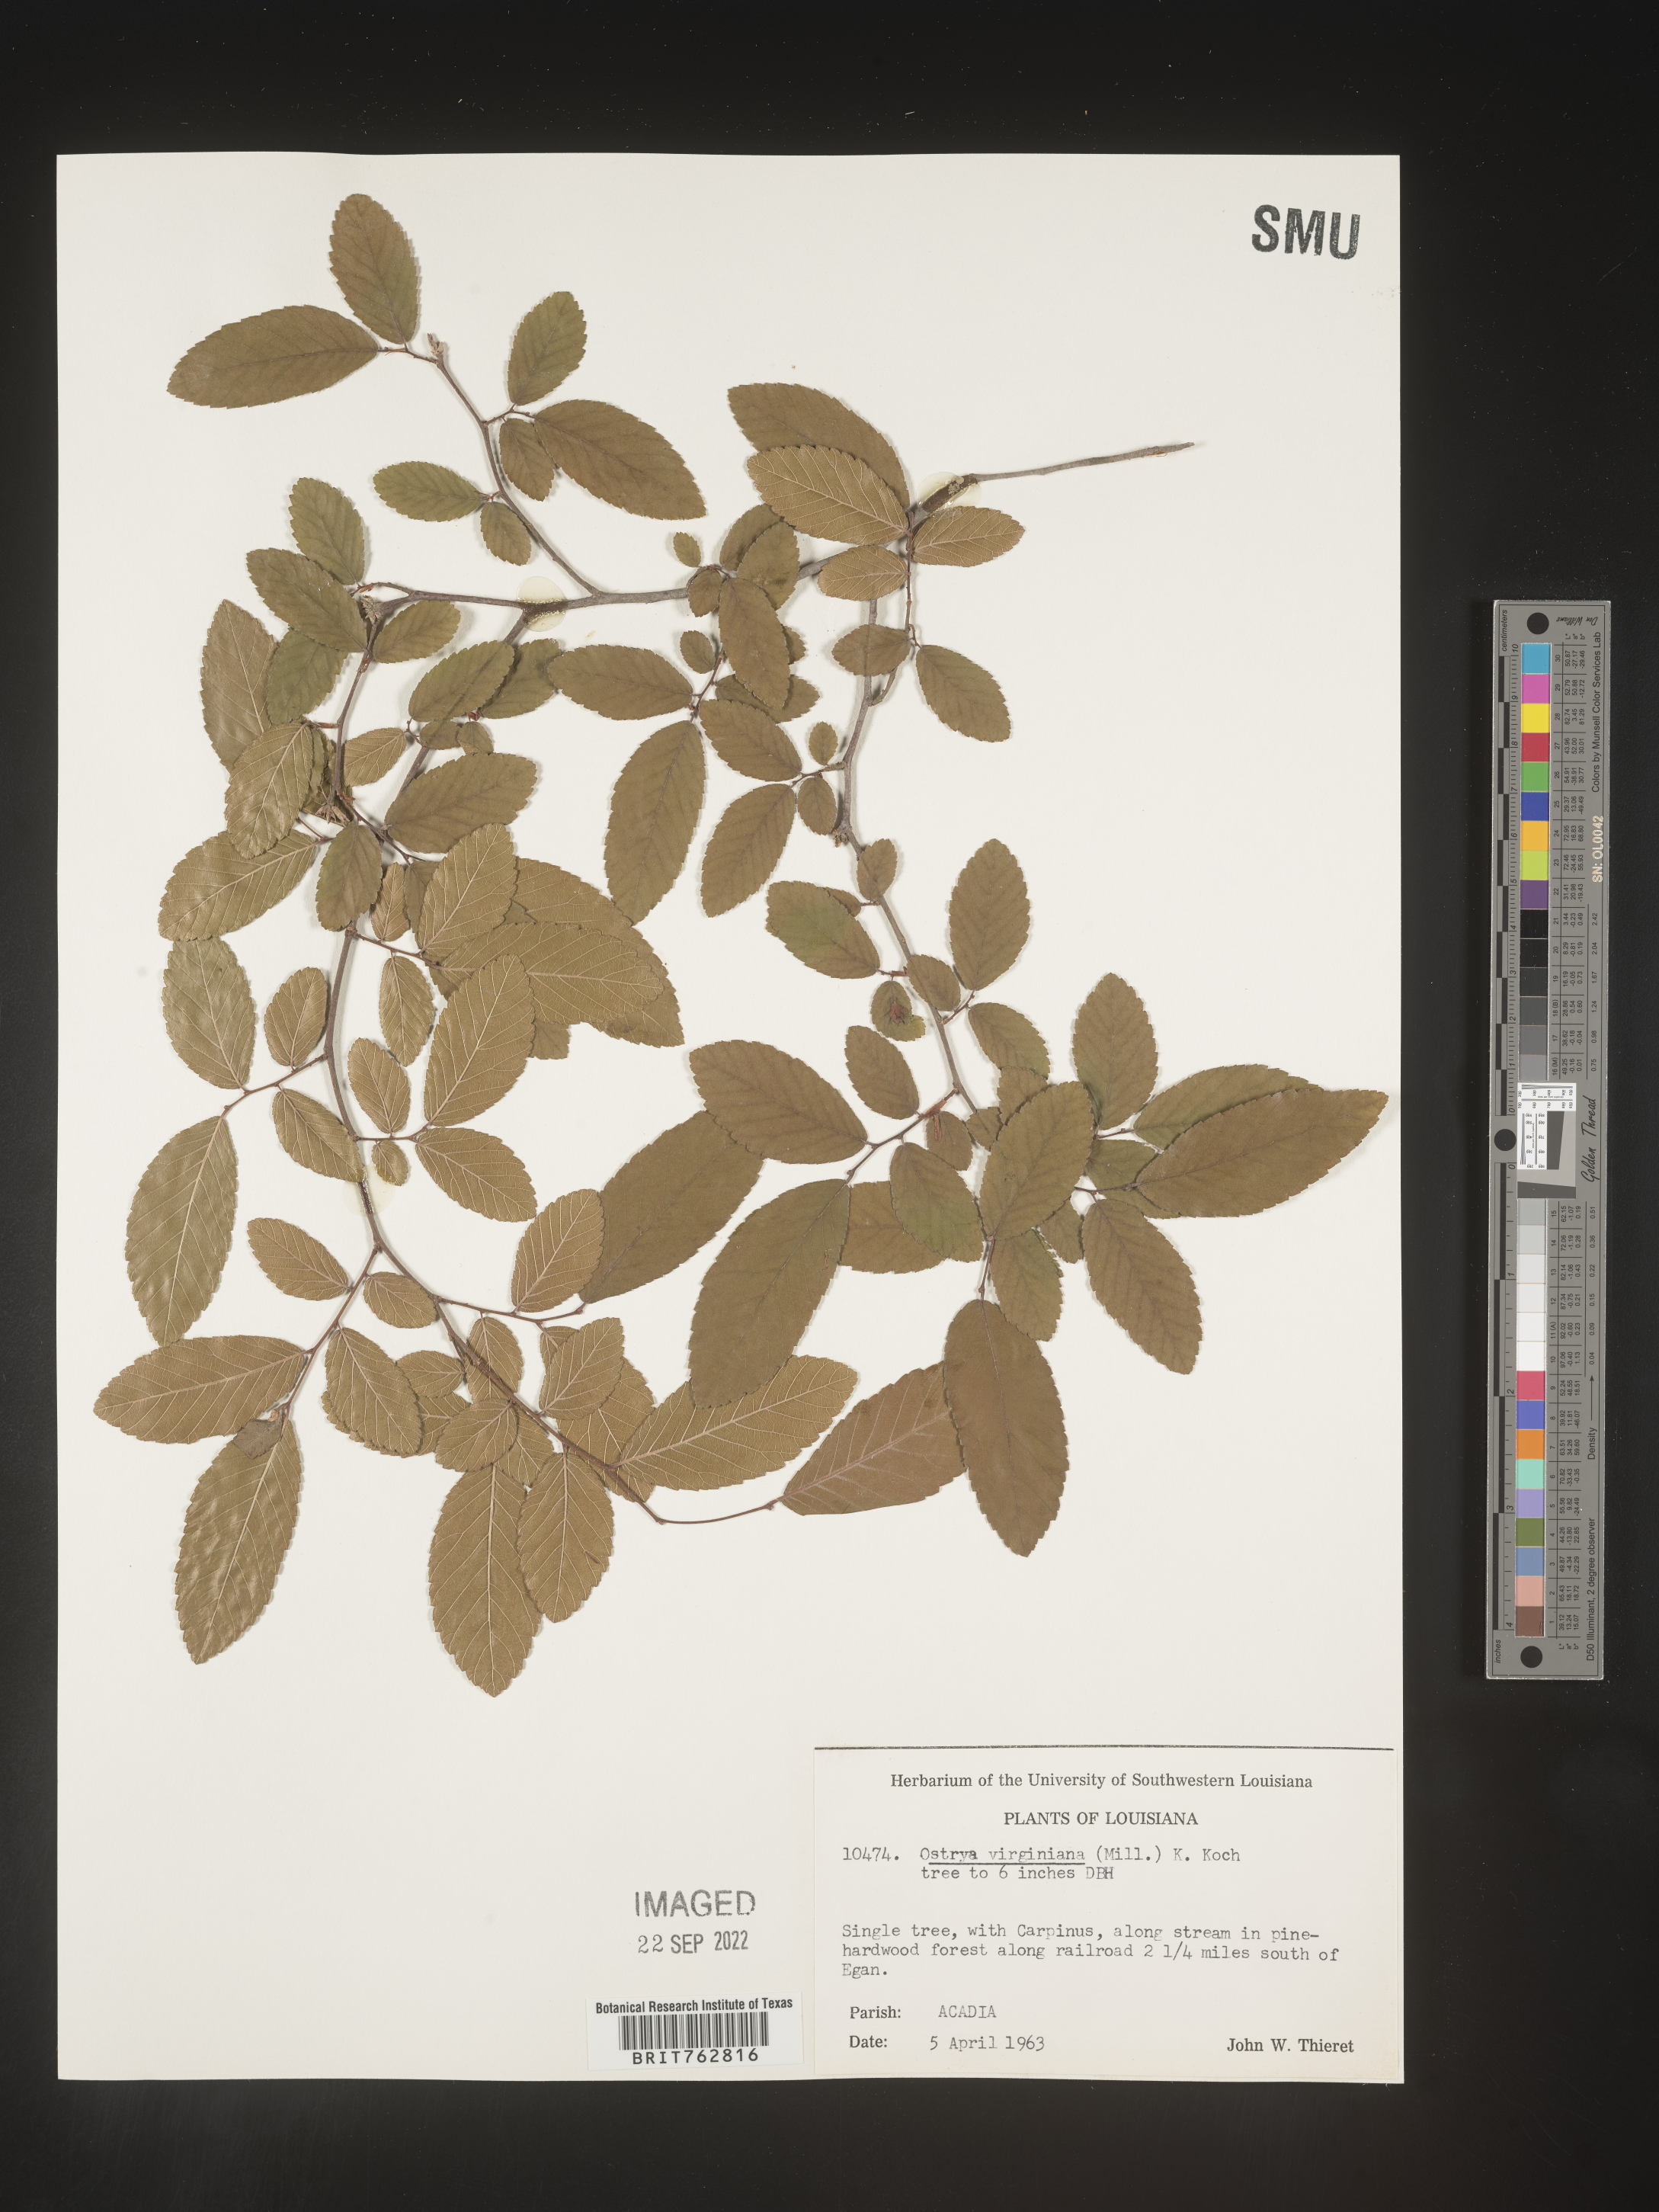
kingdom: Plantae
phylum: Tracheophyta
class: Magnoliopsida
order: Fagales
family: Betulaceae
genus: Ostrya
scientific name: Ostrya virginiana
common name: Ironwood
